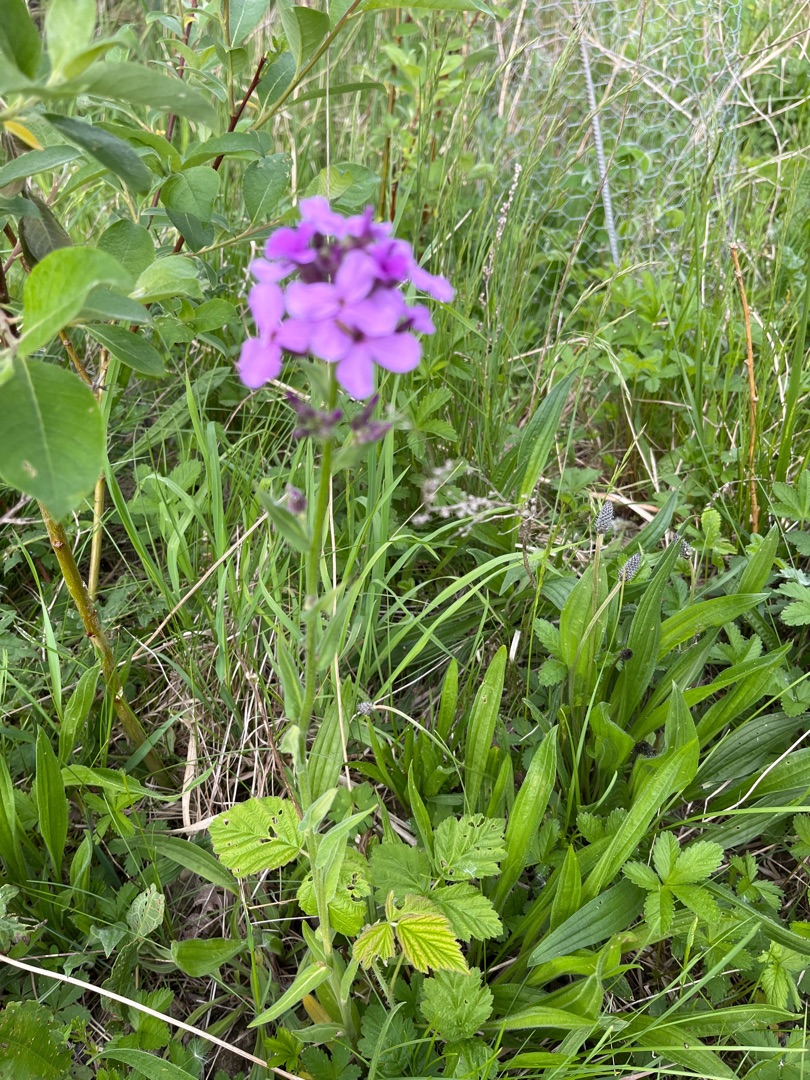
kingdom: Plantae
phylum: Tracheophyta
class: Magnoliopsida
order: Brassicales
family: Brassicaceae
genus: Hesperis
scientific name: Hesperis matronalis
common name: Aftenstjerne
